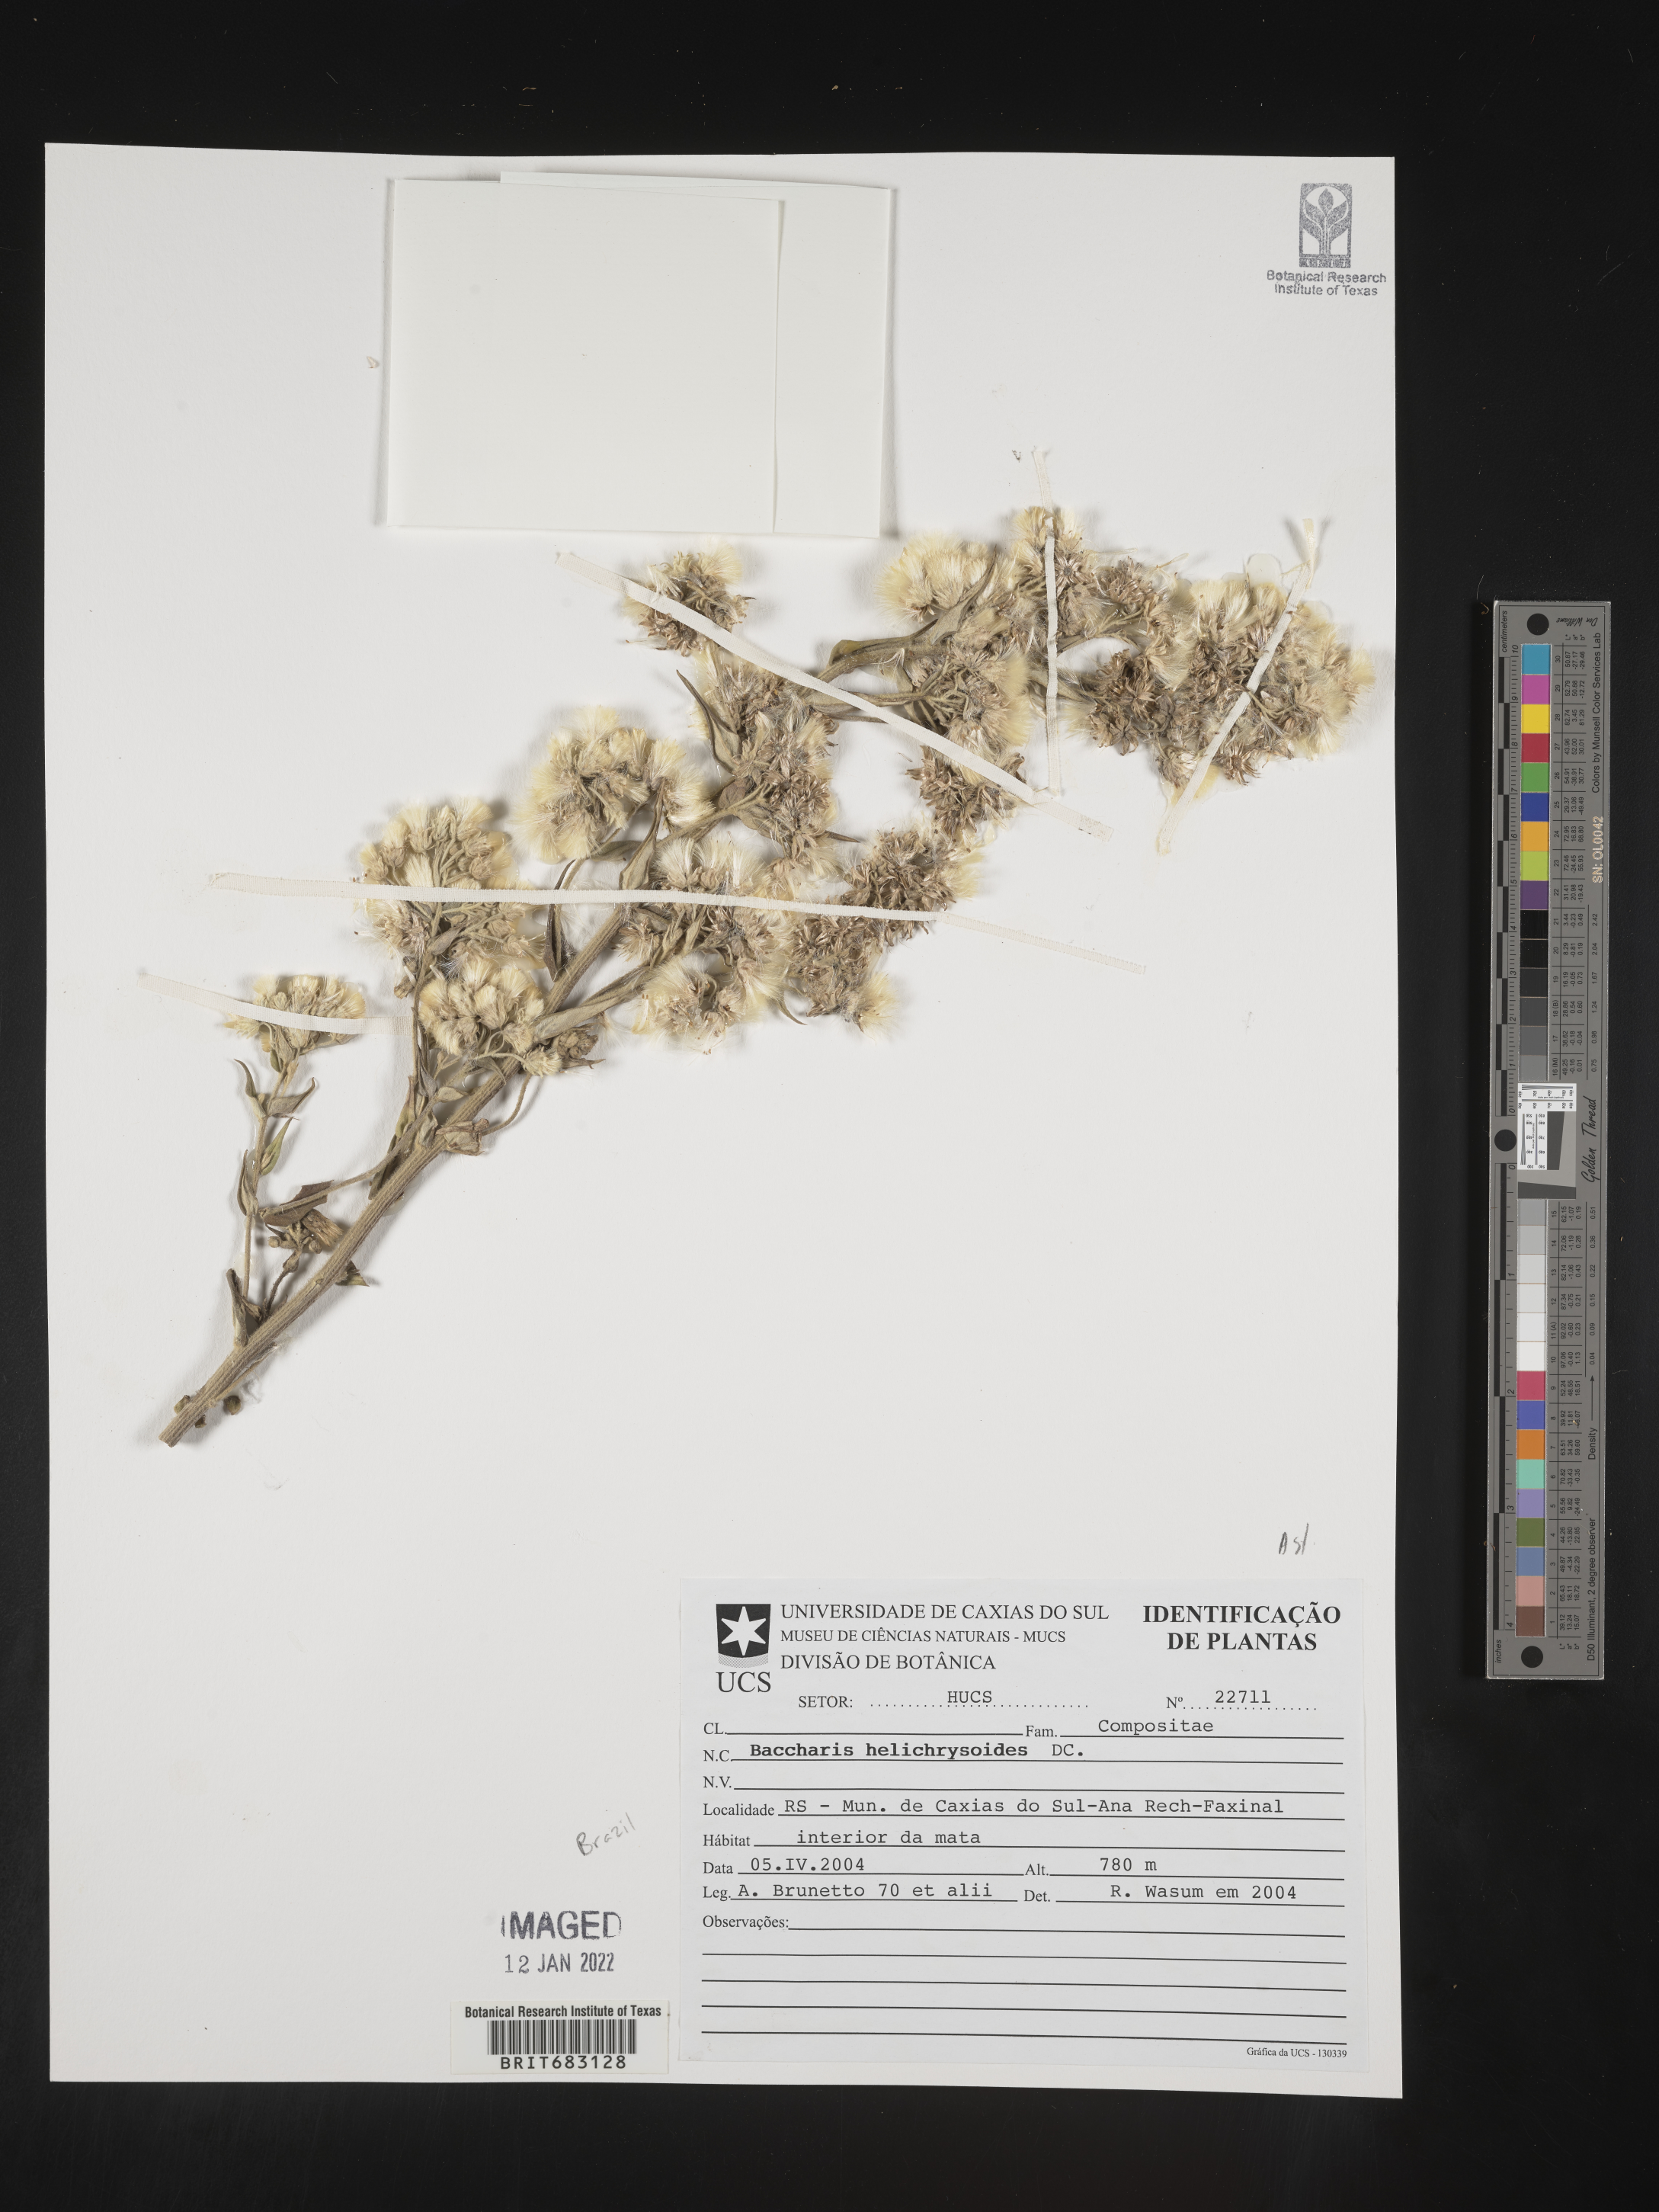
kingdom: Plantae
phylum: Tracheophyta
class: Magnoliopsida
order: Asterales
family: Asteraceae
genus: Baccharis
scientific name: Baccharis
